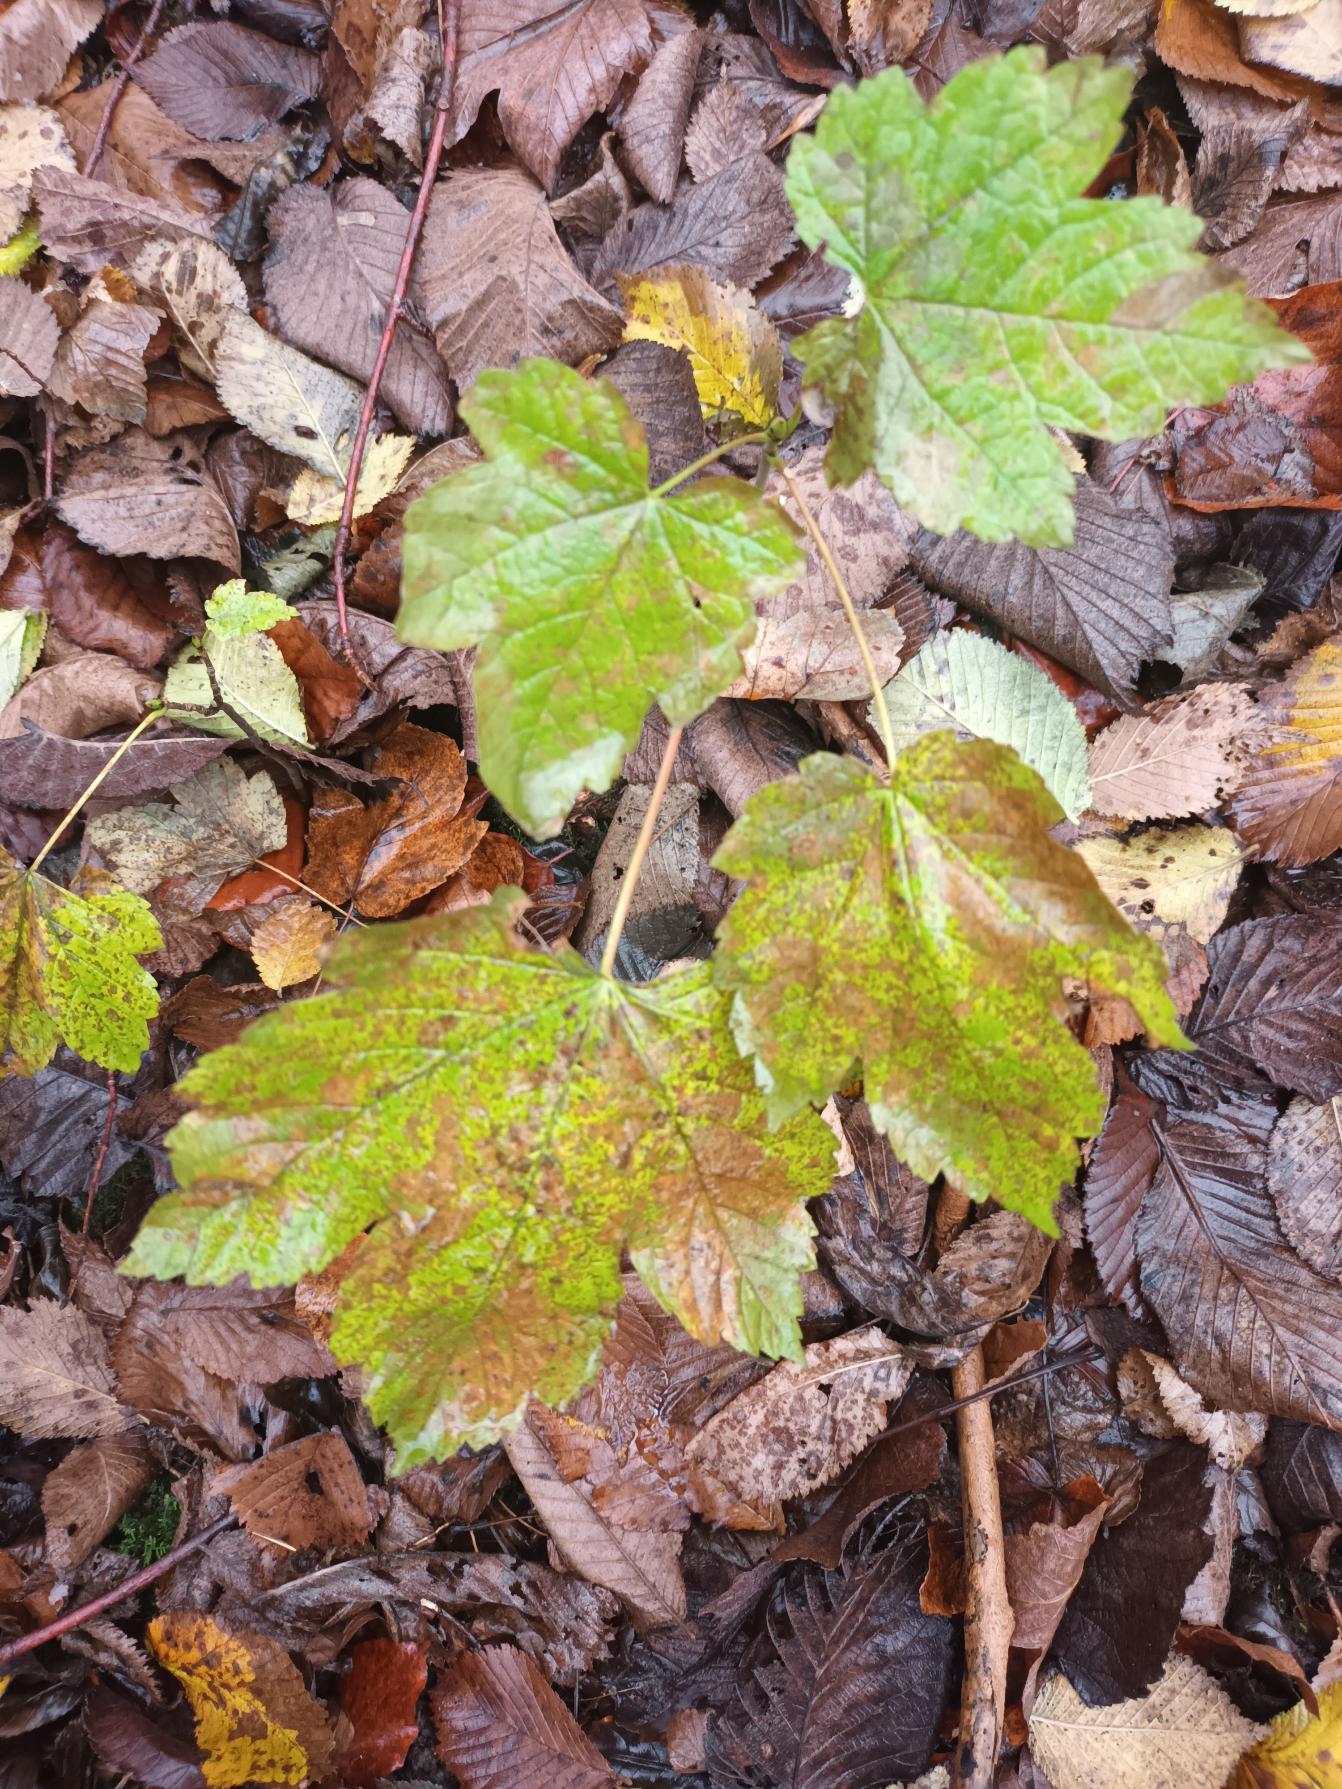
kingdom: Plantae
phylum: Tracheophyta
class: Magnoliopsida
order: Sapindales
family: Sapindaceae
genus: Acer
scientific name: Acer pseudoplatanus
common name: Ahorn
